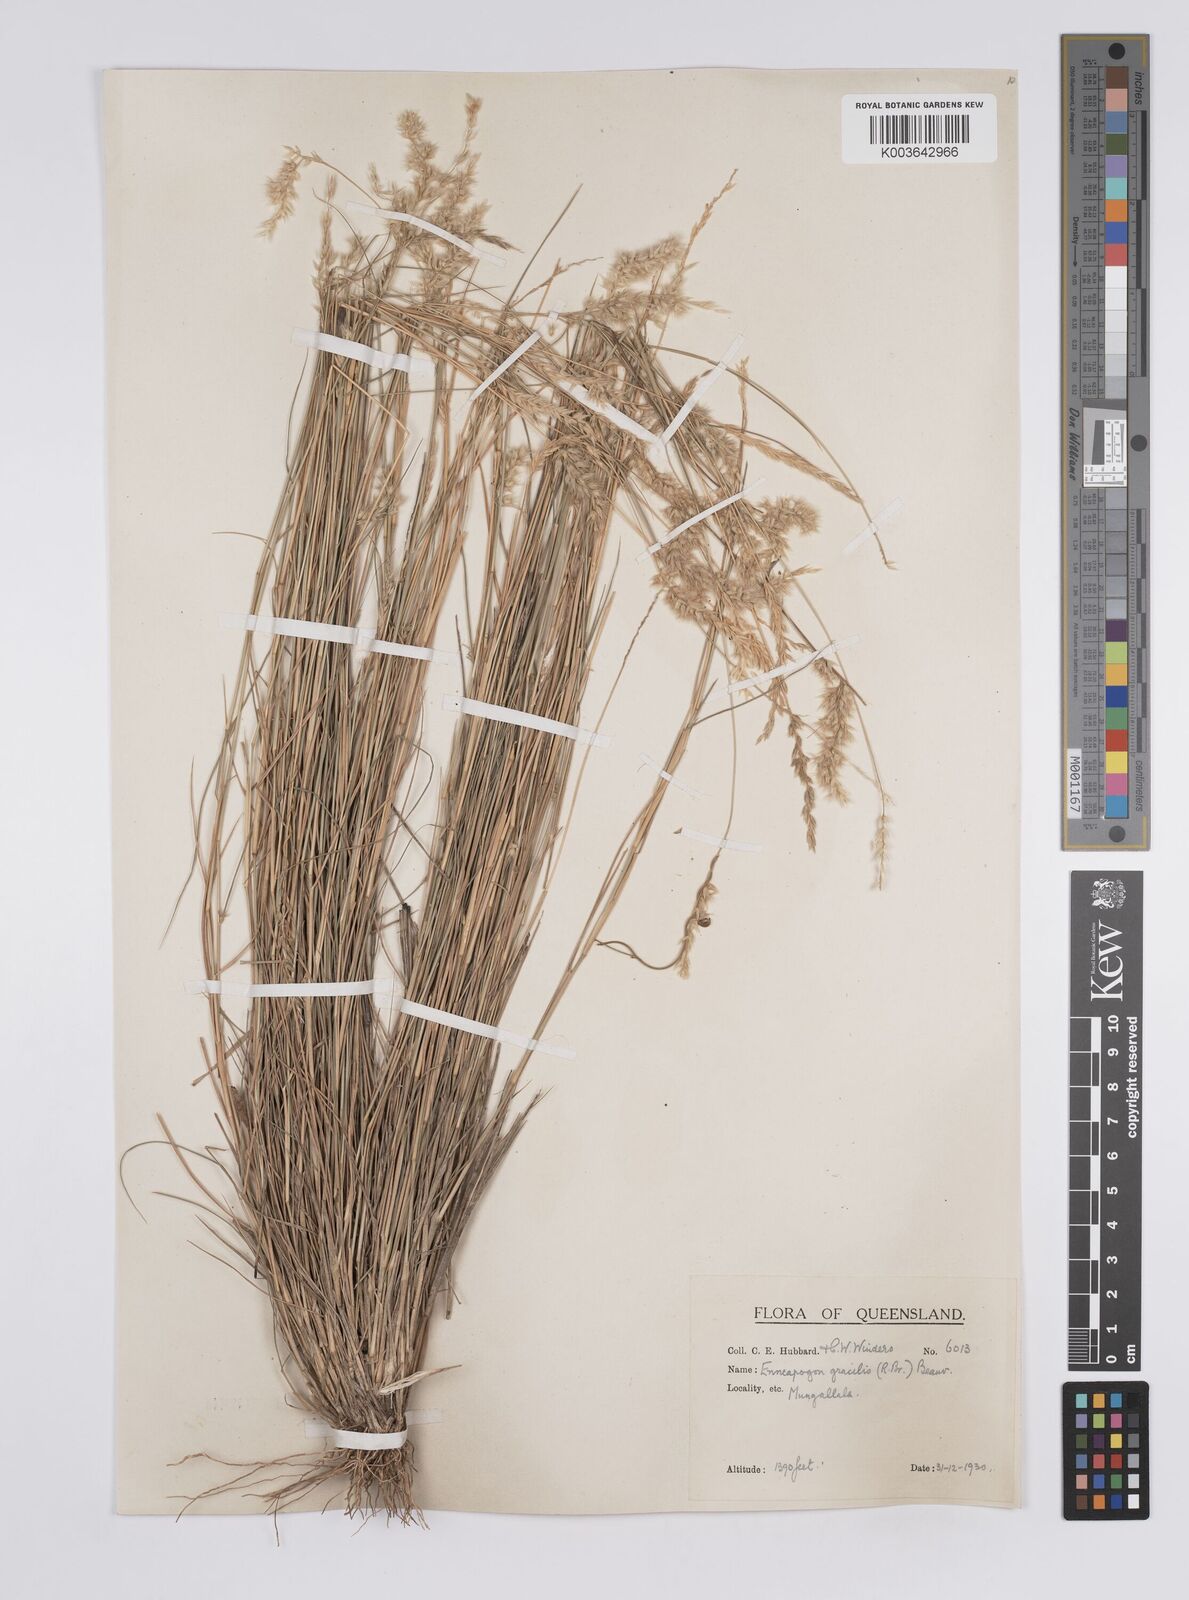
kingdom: Plantae
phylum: Tracheophyta
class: Liliopsida
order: Poales
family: Poaceae
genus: Enneapogon
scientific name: Enneapogon gracilis
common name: Slender bottle-washers
